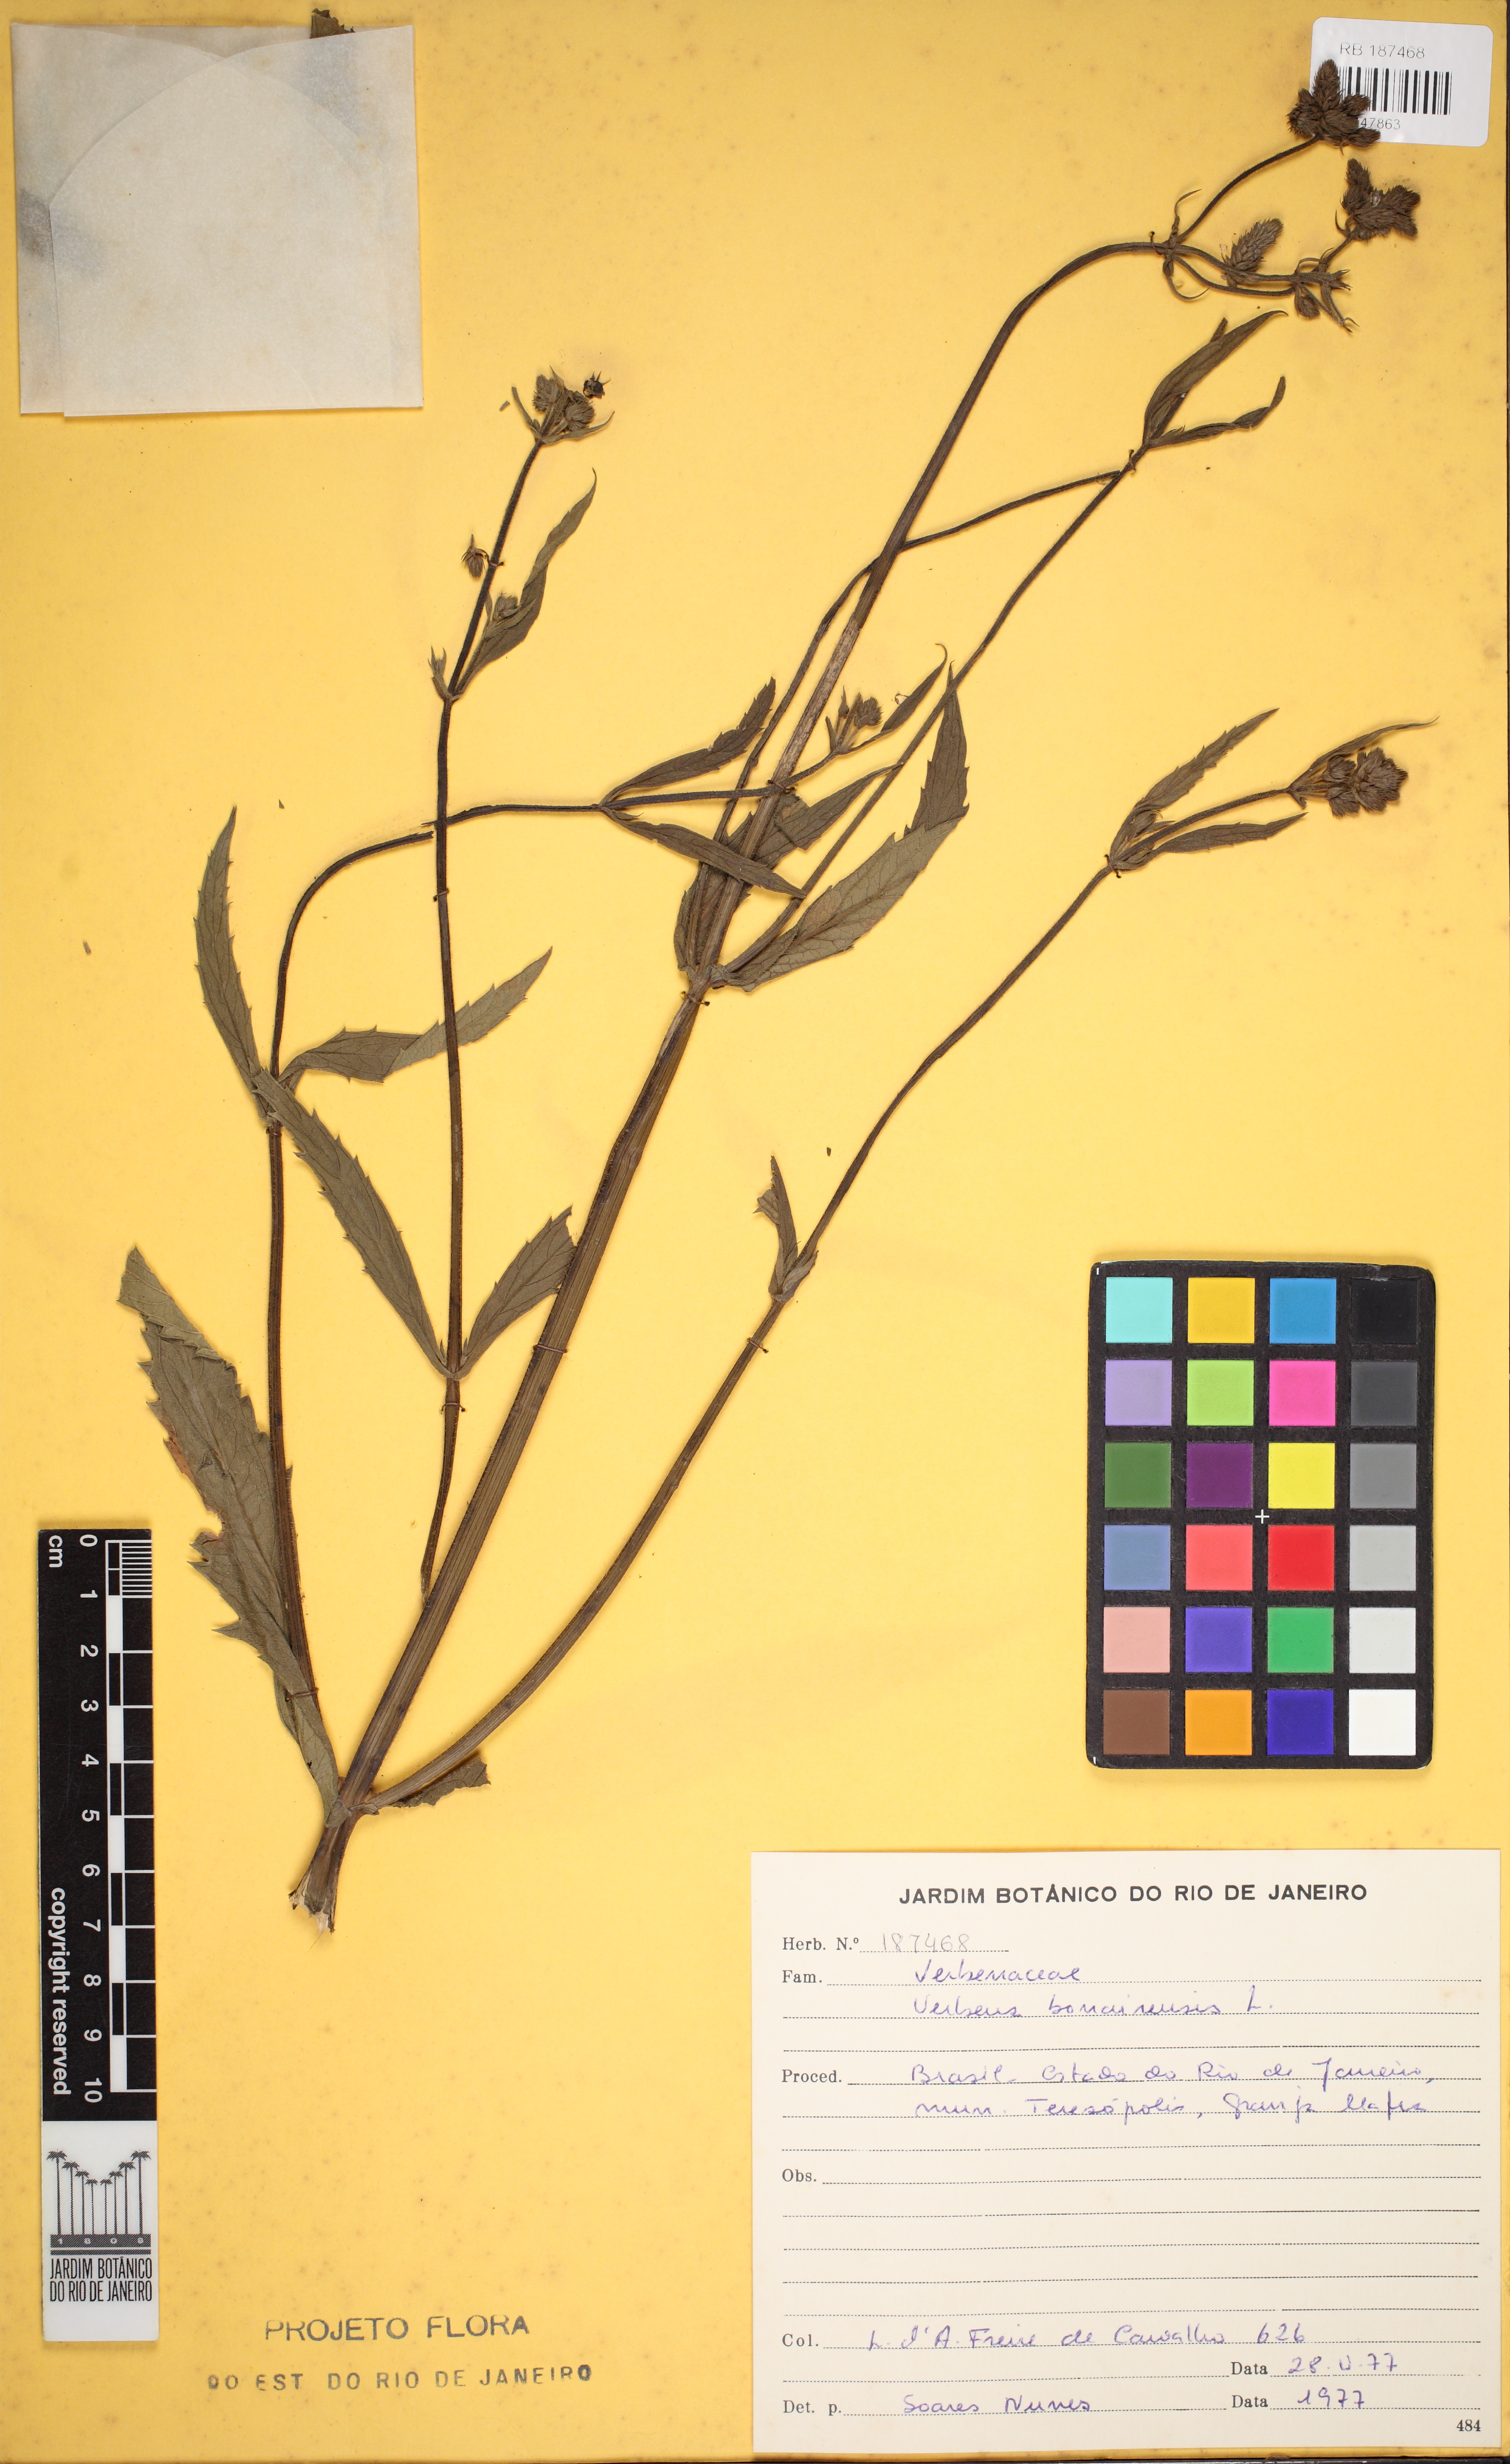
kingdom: Plantae
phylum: Tracheophyta
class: Magnoliopsida
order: Lamiales
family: Verbenaceae
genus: Verbena
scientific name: Verbena bonariensis
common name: Purpletop vervain
